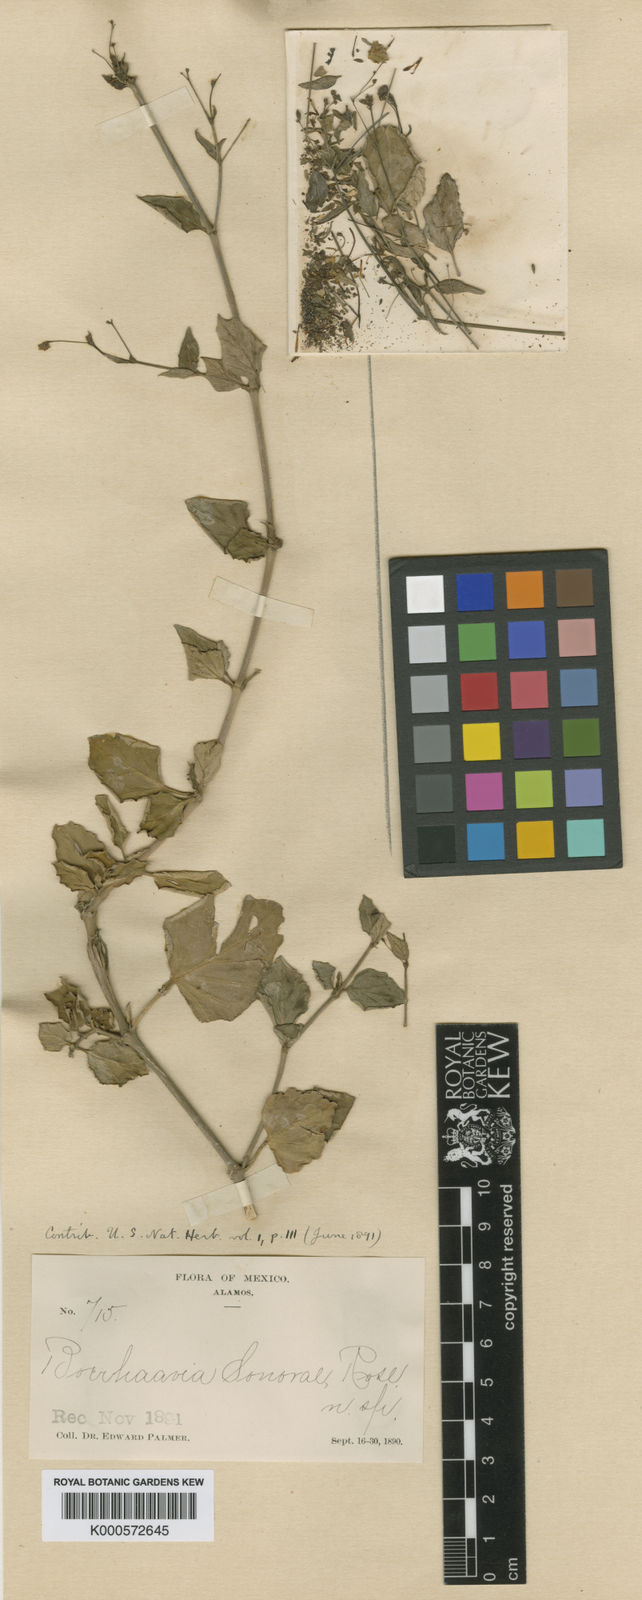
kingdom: Plantae
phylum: Tracheophyta
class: Magnoliopsida
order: Caryophyllales
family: Nyctaginaceae
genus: Boerhavia
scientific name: Boerhavia coccinea
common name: Scarlet spiderling
